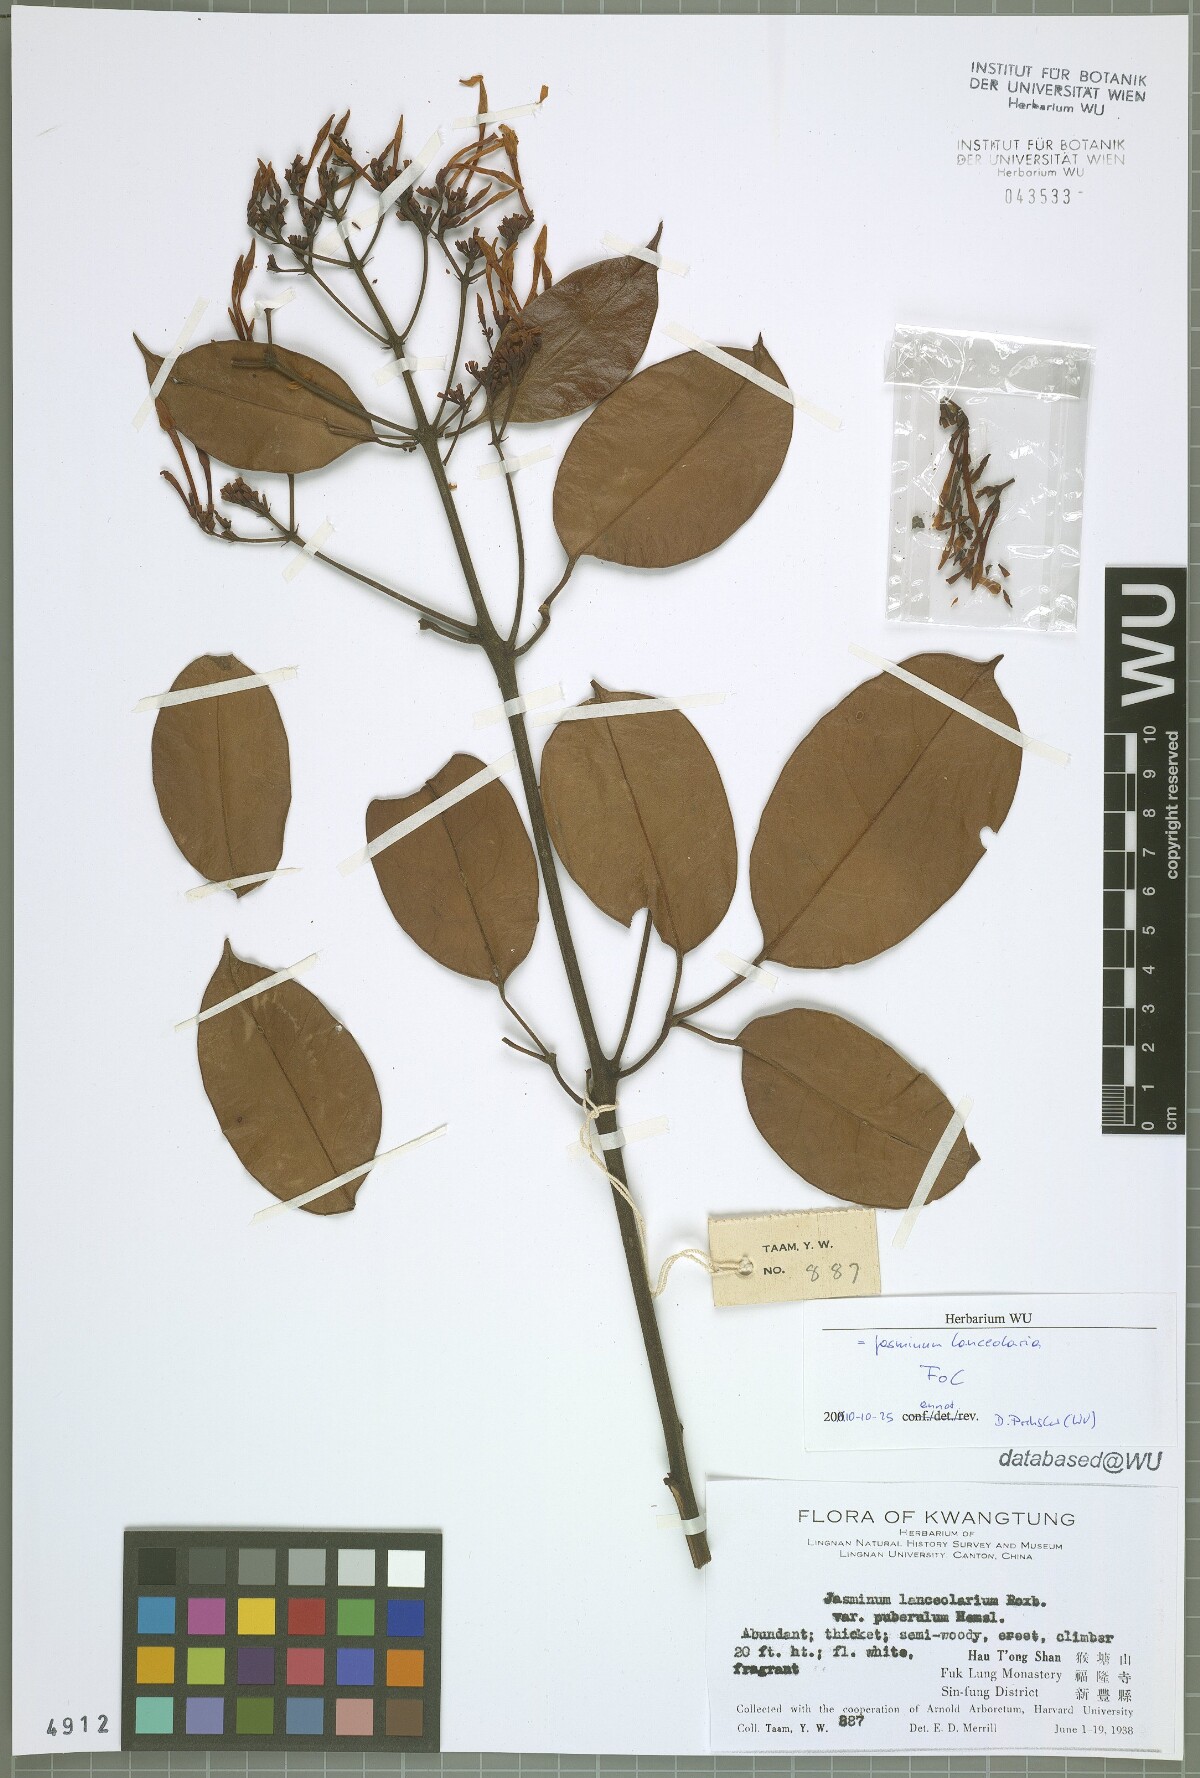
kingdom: Plantae
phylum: Tracheophyta
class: Magnoliopsida
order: Lamiales
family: Oleaceae
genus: Jasminum
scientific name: Jasminum lanceolaria
